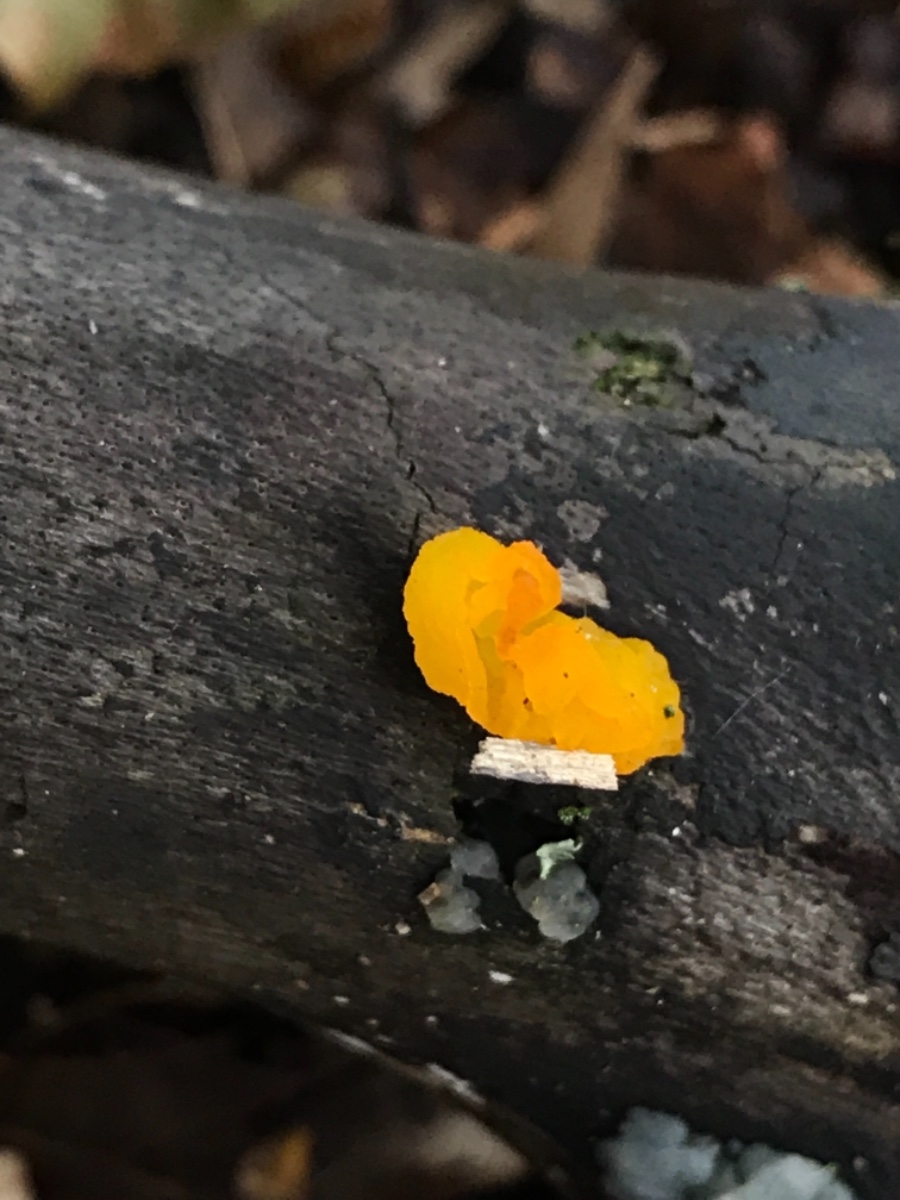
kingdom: Fungi
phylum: Basidiomycota
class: Tremellomycetes
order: Tremellales
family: Tremellaceae
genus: Tremella
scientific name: Tremella mesenterica
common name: gul bævresvamp
